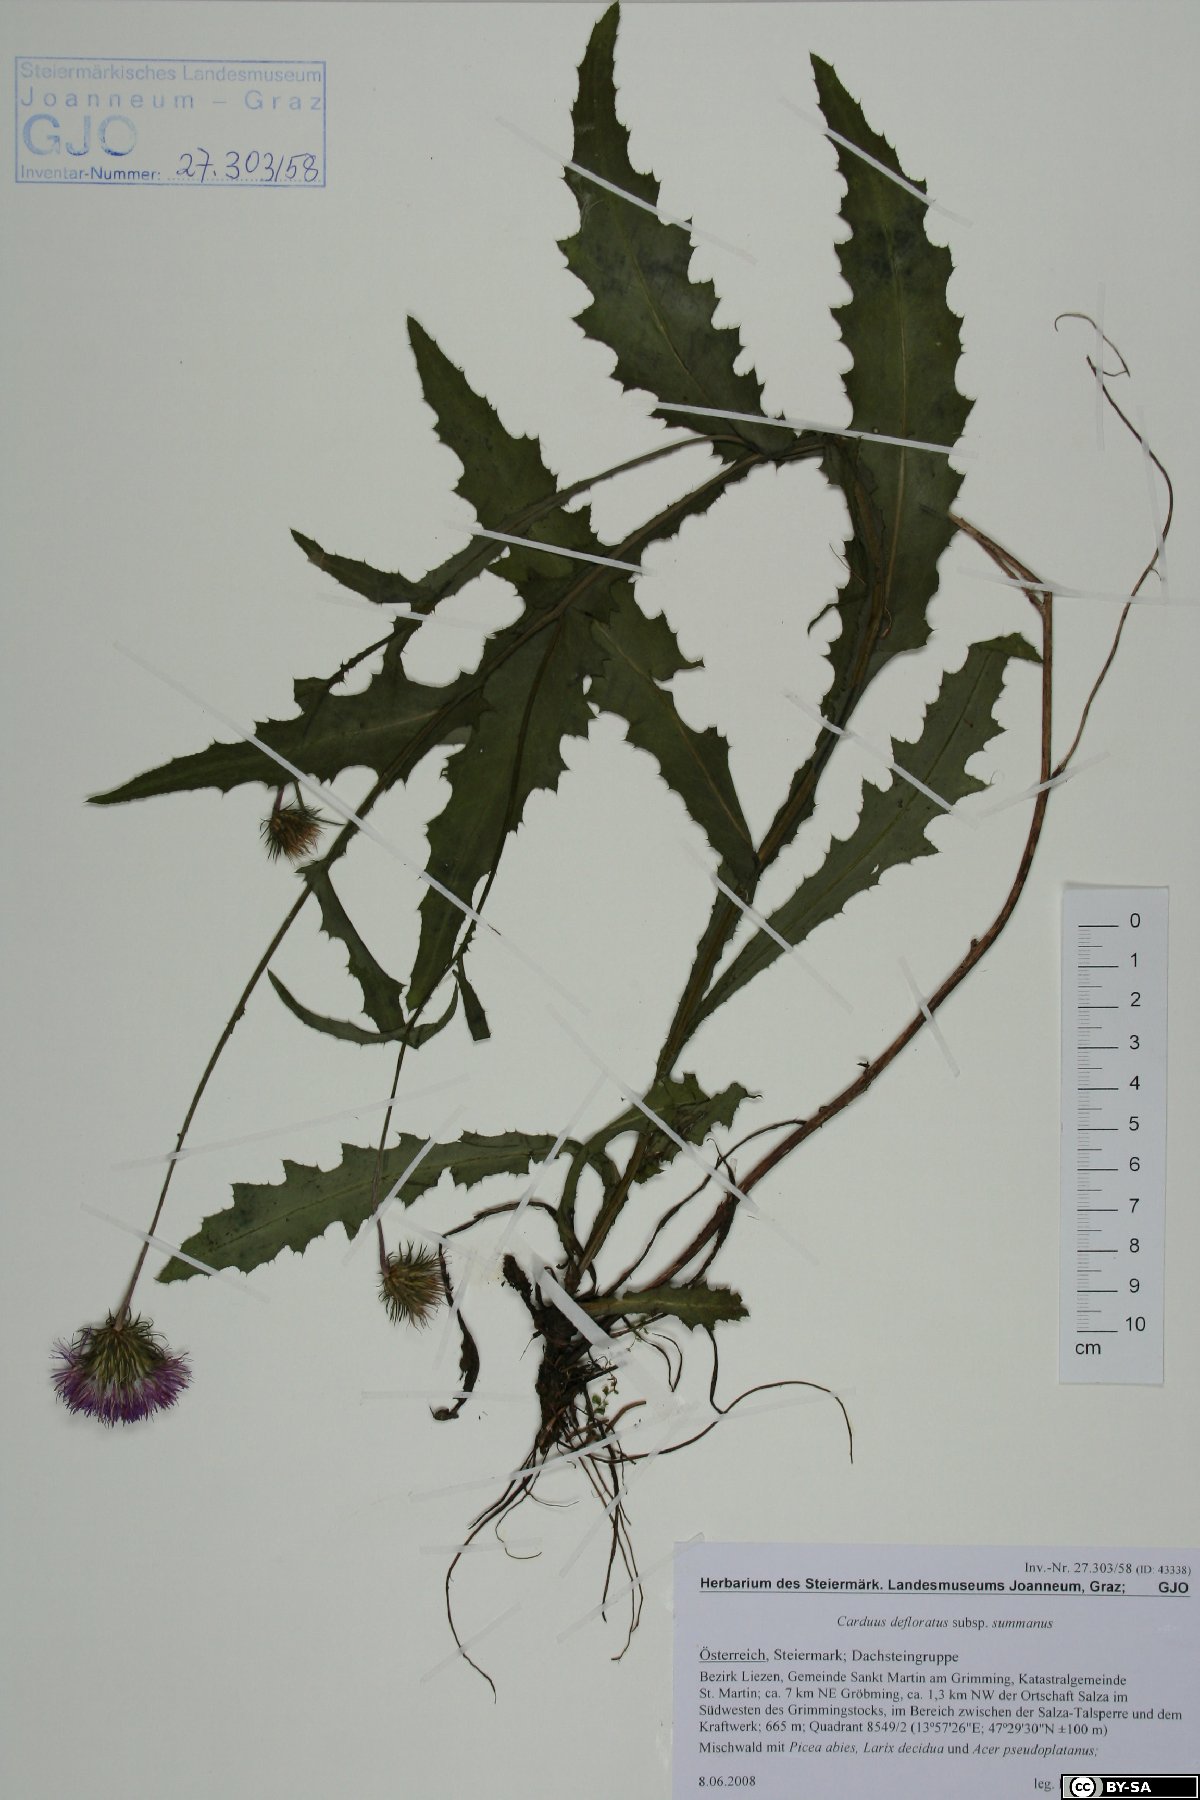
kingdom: Plantae
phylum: Tracheophyta
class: Magnoliopsida
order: Asterales
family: Asteraceae
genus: Carduus
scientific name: Carduus defloratus
